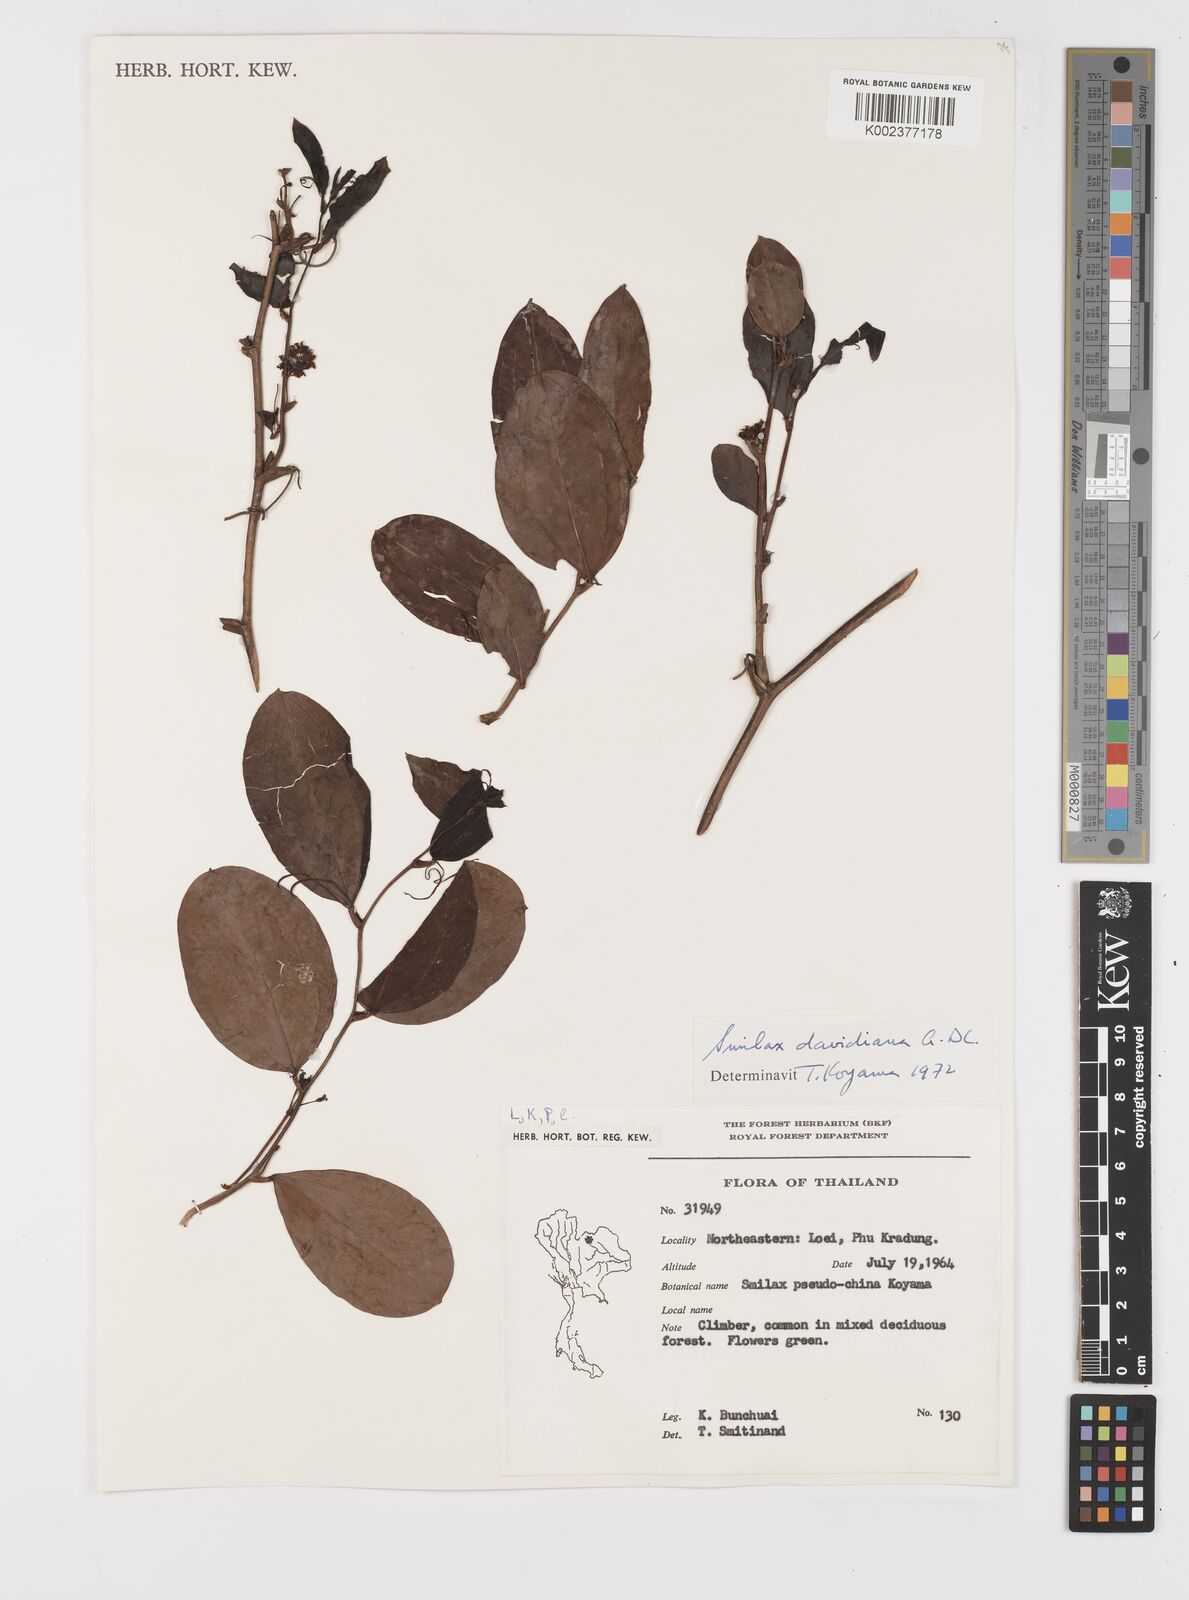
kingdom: Plantae
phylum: Tracheophyta
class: Liliopsida
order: Liliales
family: Smilacaceae
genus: Smilax
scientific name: Smilax davidiana
